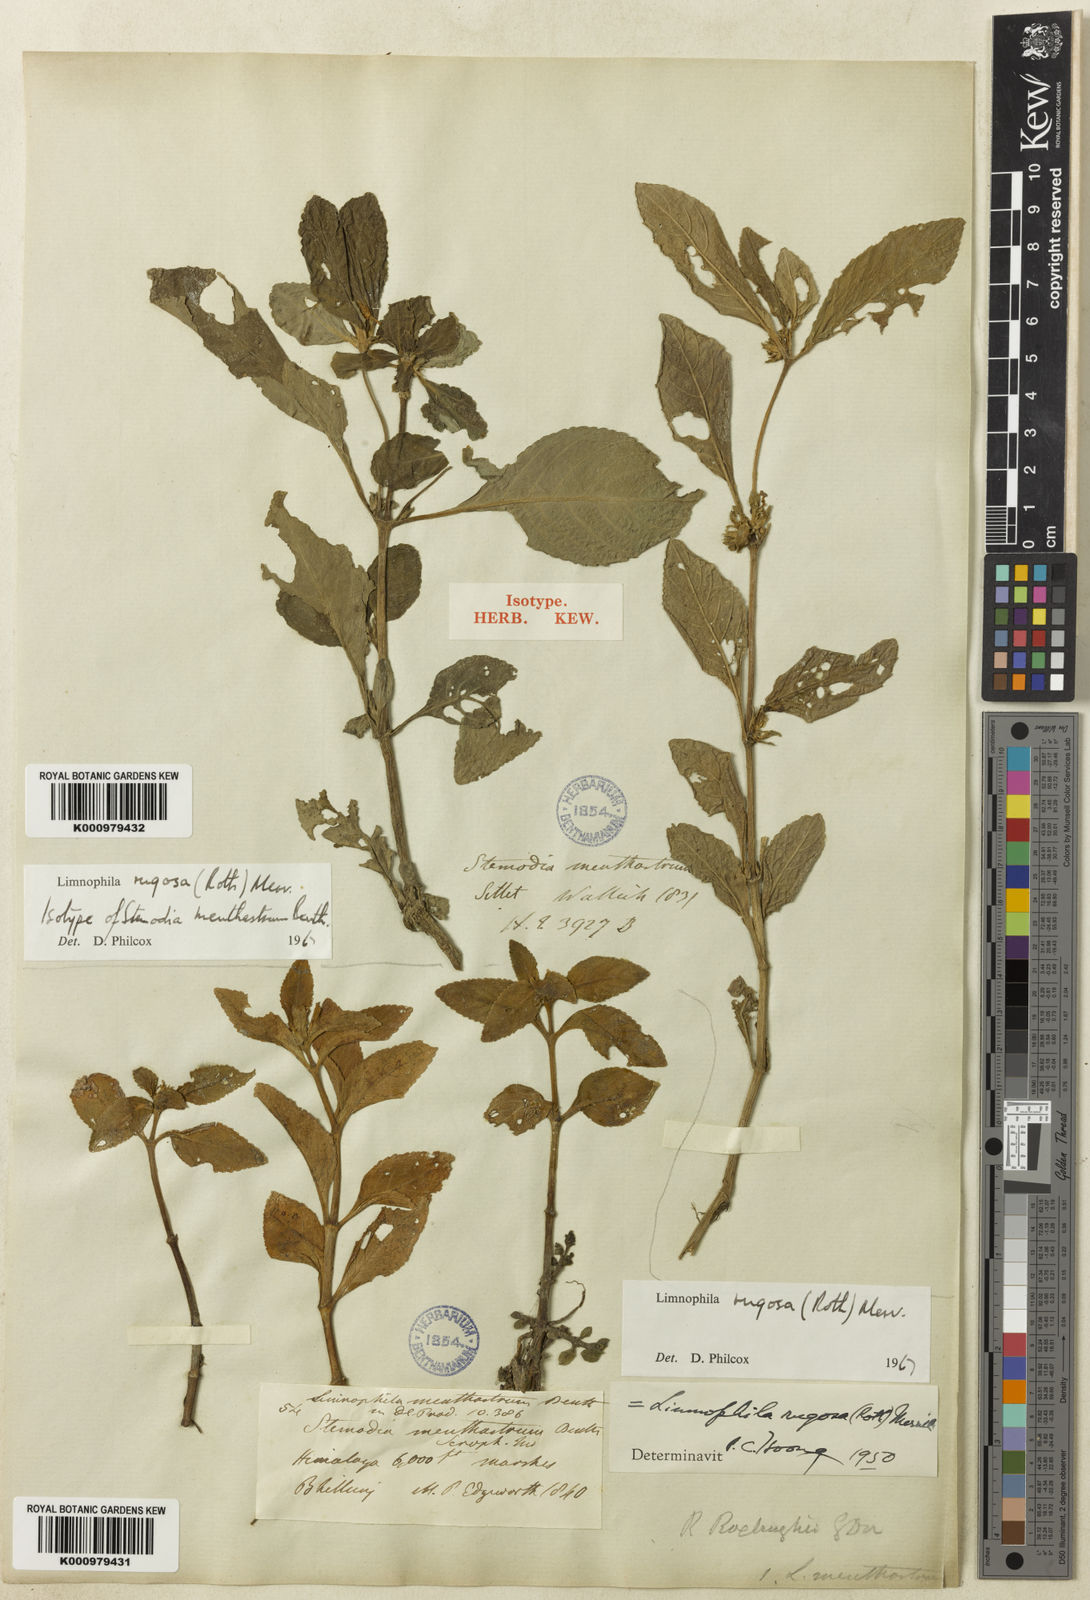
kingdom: Plantae
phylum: Tracheophyta
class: Magnoliopsida
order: Lamiales
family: Plantaginaceae
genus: Limnophila
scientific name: Limnophila rugosa
